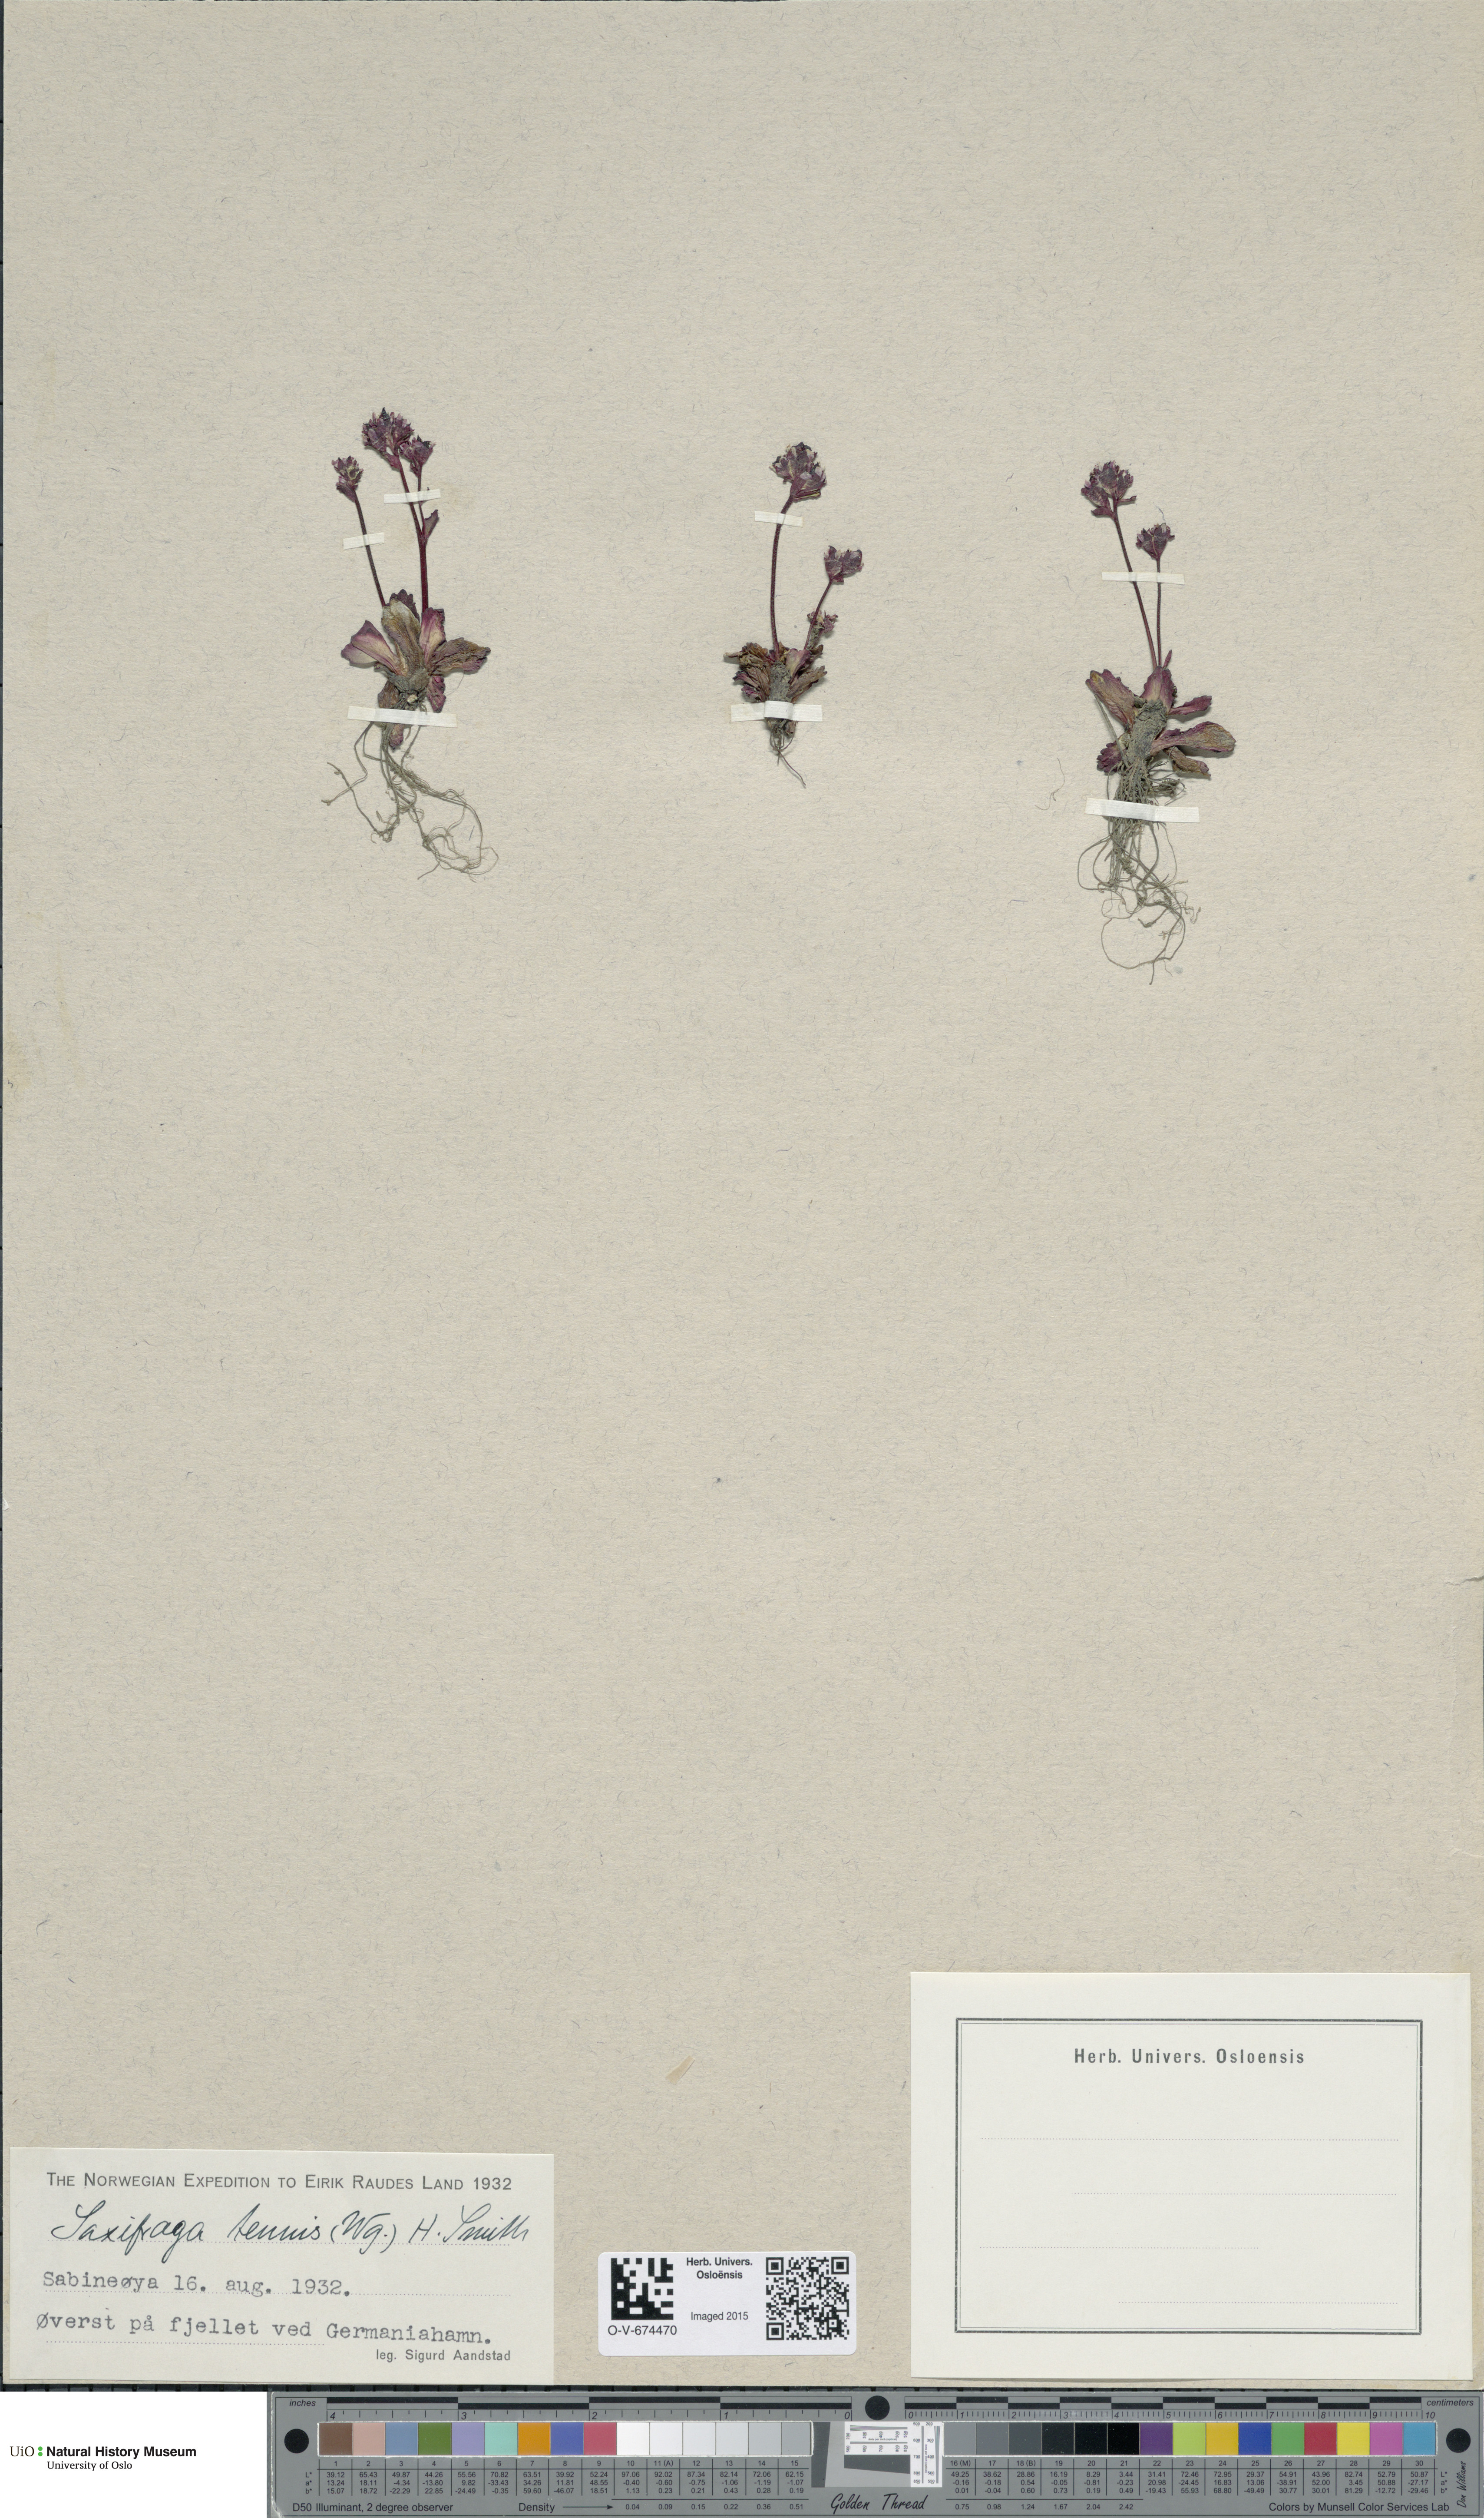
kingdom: Plantae
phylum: Tracheophyta
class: Magnoliopsida
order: Saxifragales
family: Saxifragaceae
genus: Micranthes
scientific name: Micranthes tenuis
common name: Ottertail pass saxifrage
